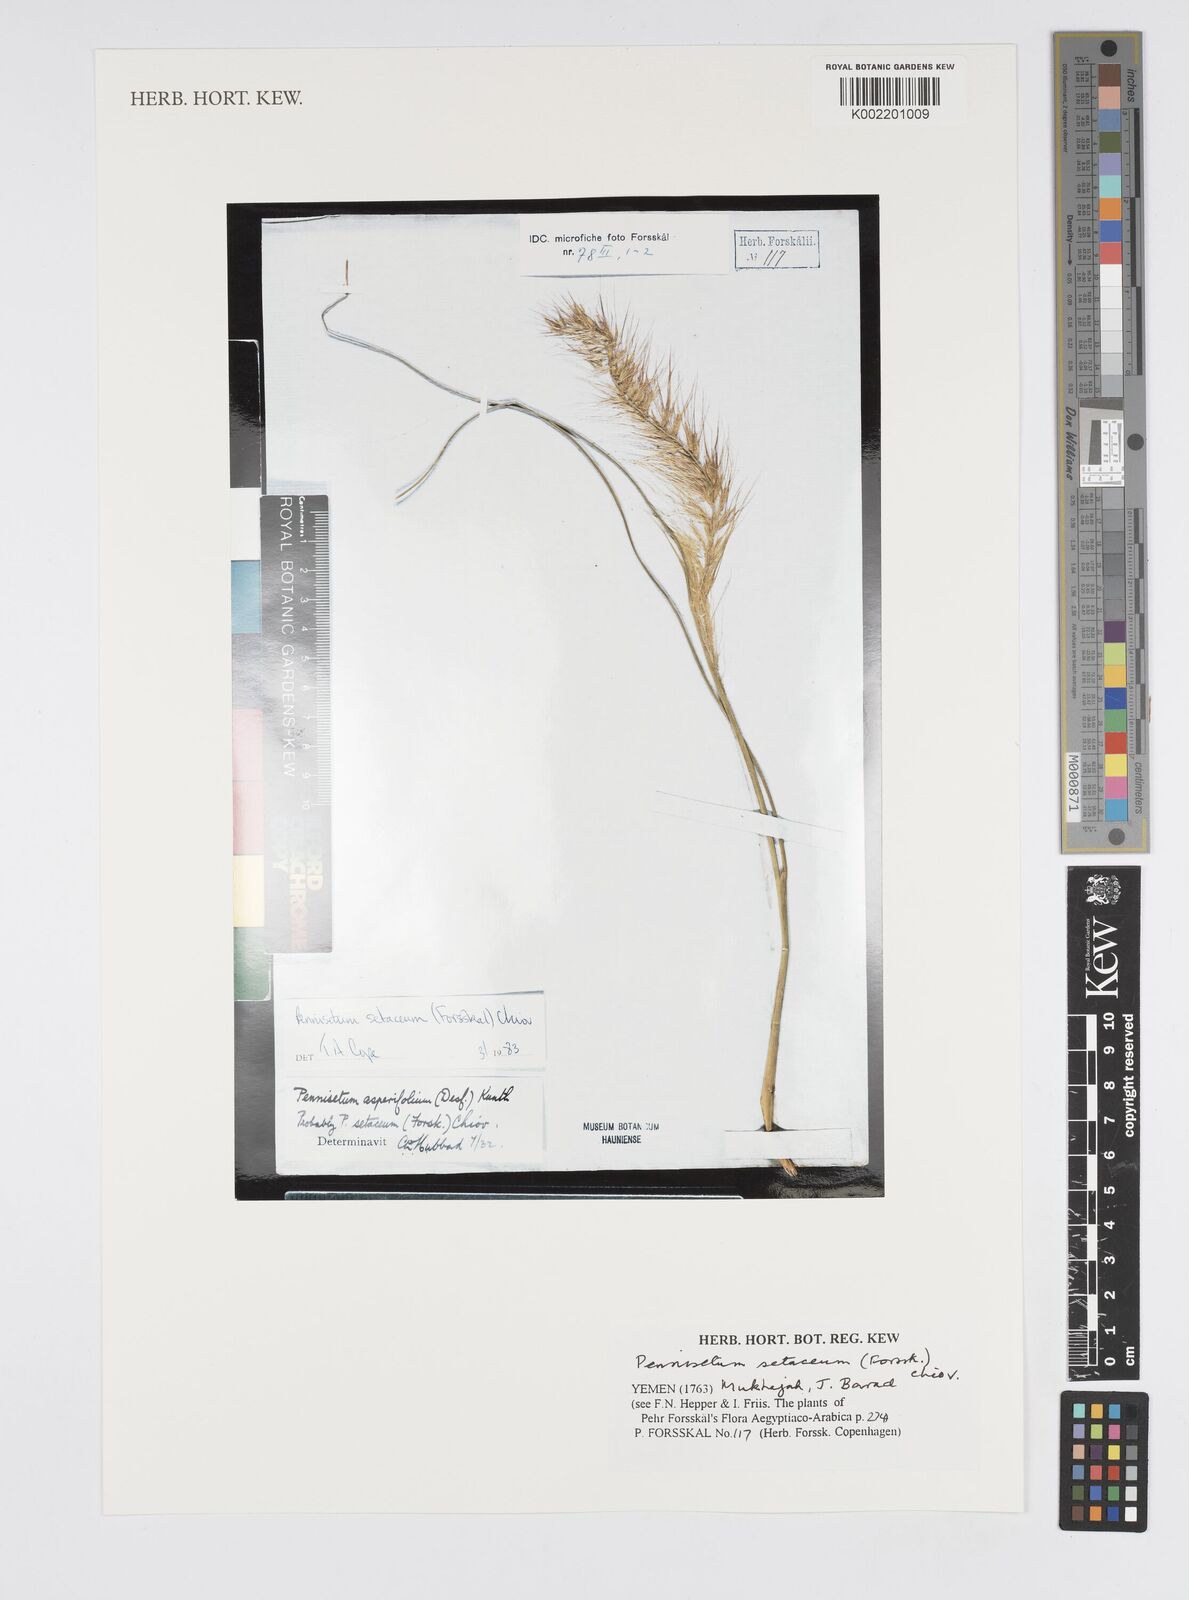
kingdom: Plantae
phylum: Tracheophyta
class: Liliopsida
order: Poales
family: Poaceae
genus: Cenchrus
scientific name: Cenchrus setaceus
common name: Crimson fountaingrass
